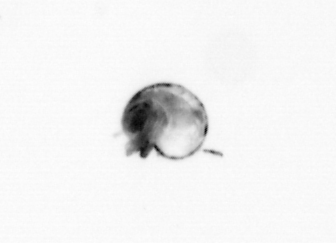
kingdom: Animalia
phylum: Arthropoda
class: Copepoda
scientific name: Copepoda
